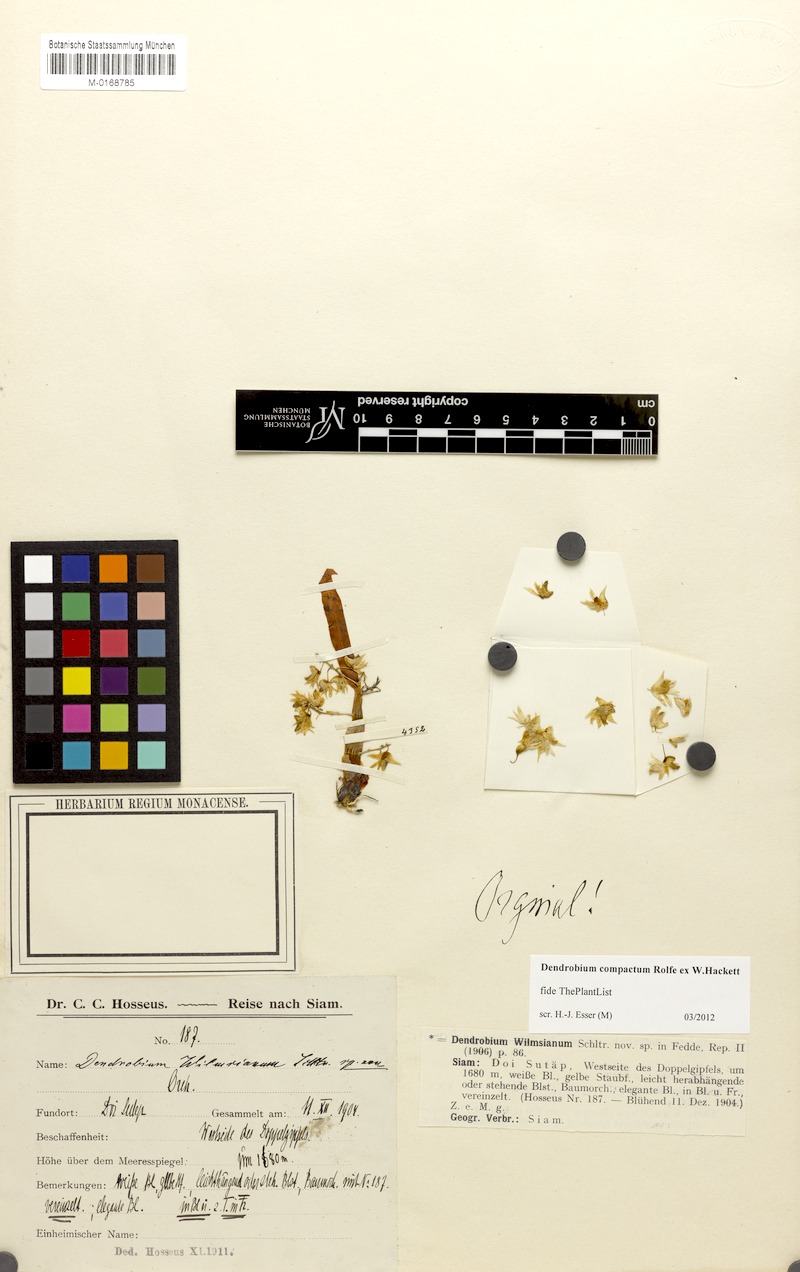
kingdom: Plantae
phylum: Tracheophyta
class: Liliopsida
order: Asparagales
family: Orchidaceae
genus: Dendrobium
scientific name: Dendrobium compactum
